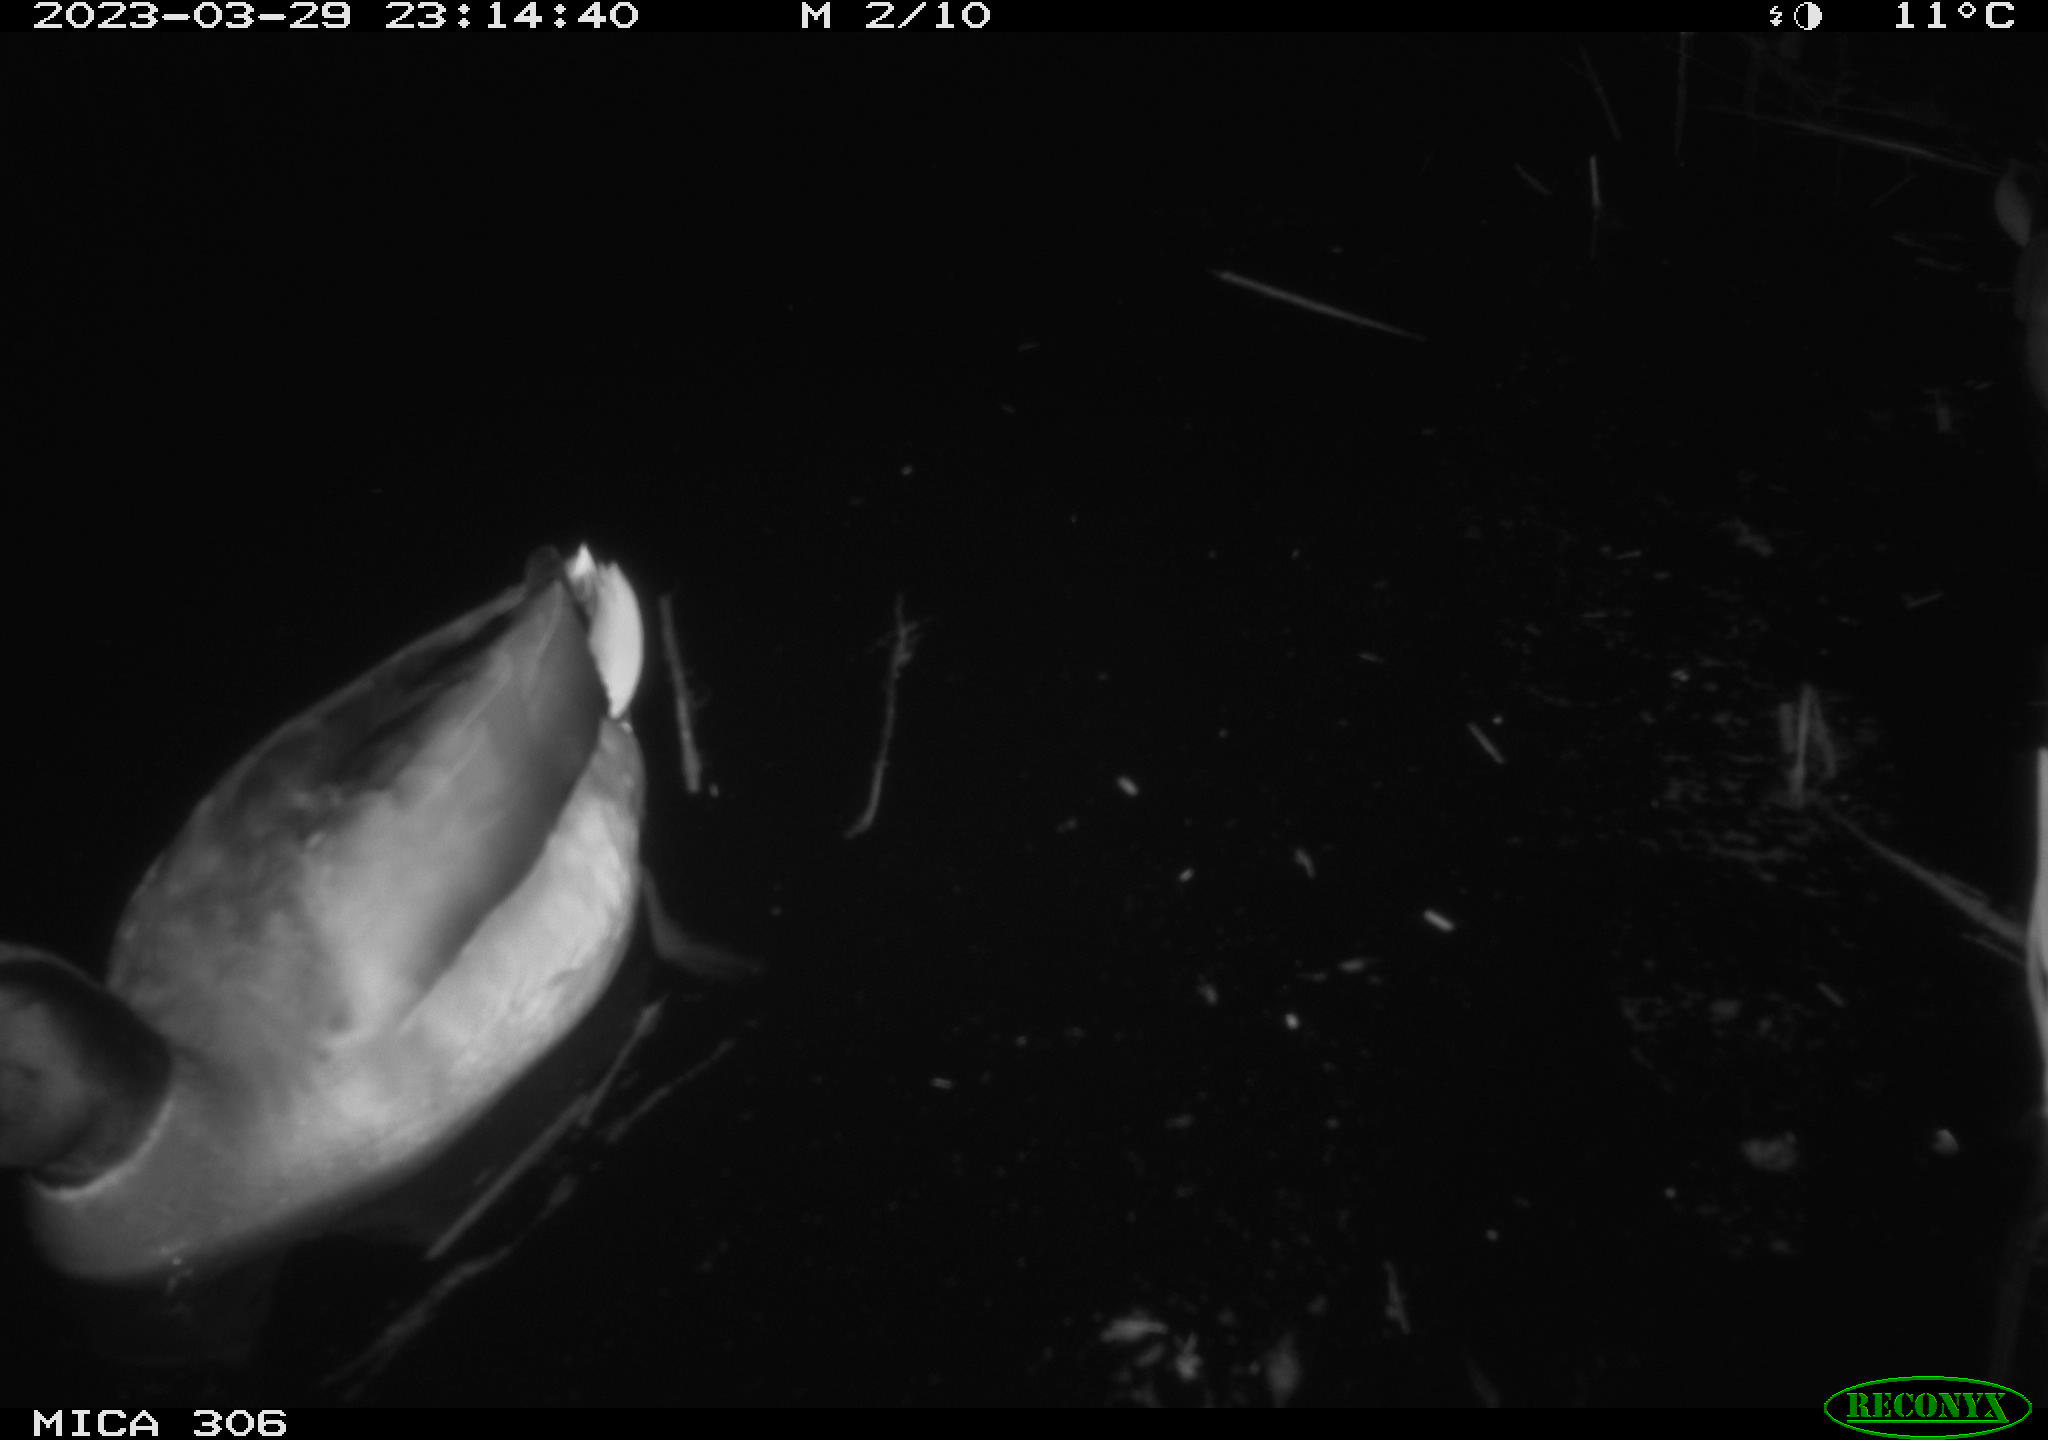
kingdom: Animalia
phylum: Chordata
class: Aves
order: Anseriformes
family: Anatidae
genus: Anas
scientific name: Anas
